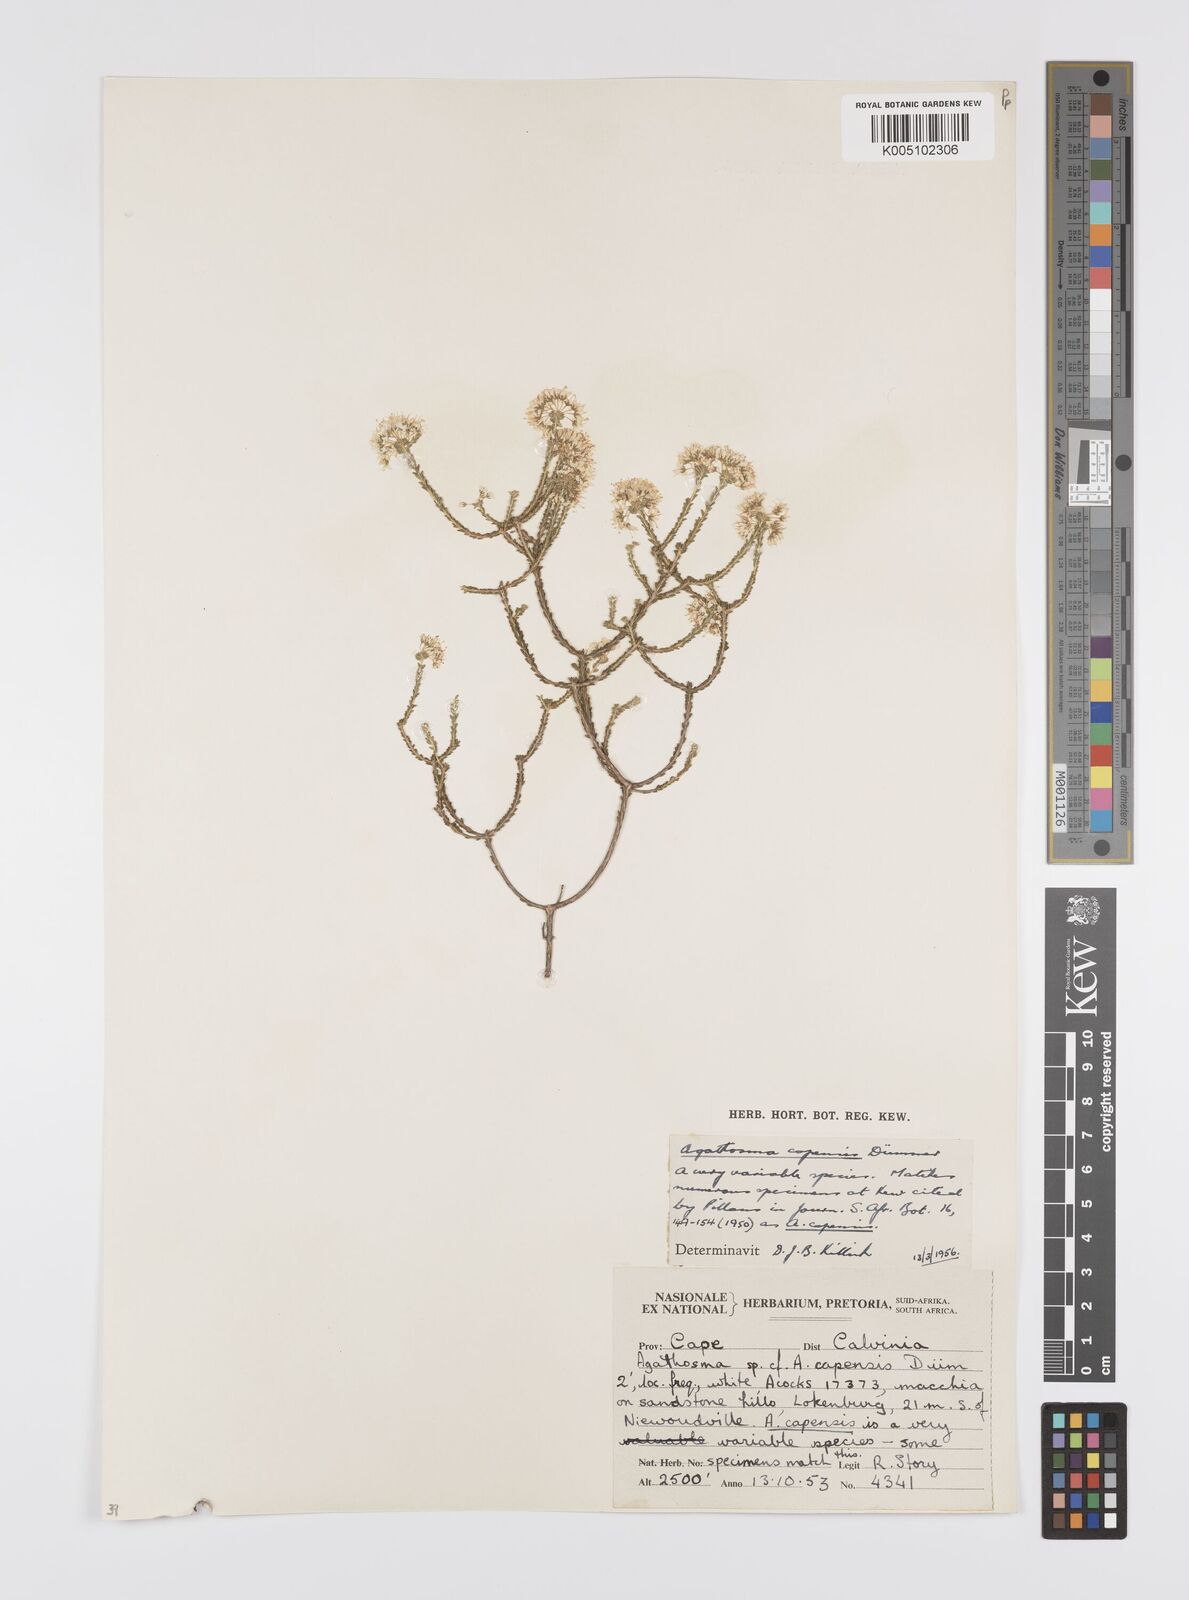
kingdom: Plantae
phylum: Tracheophyta
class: Magnoliopsida
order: Sapindales
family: Rutaceae
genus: Agathosma
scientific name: Agathosma capensis
